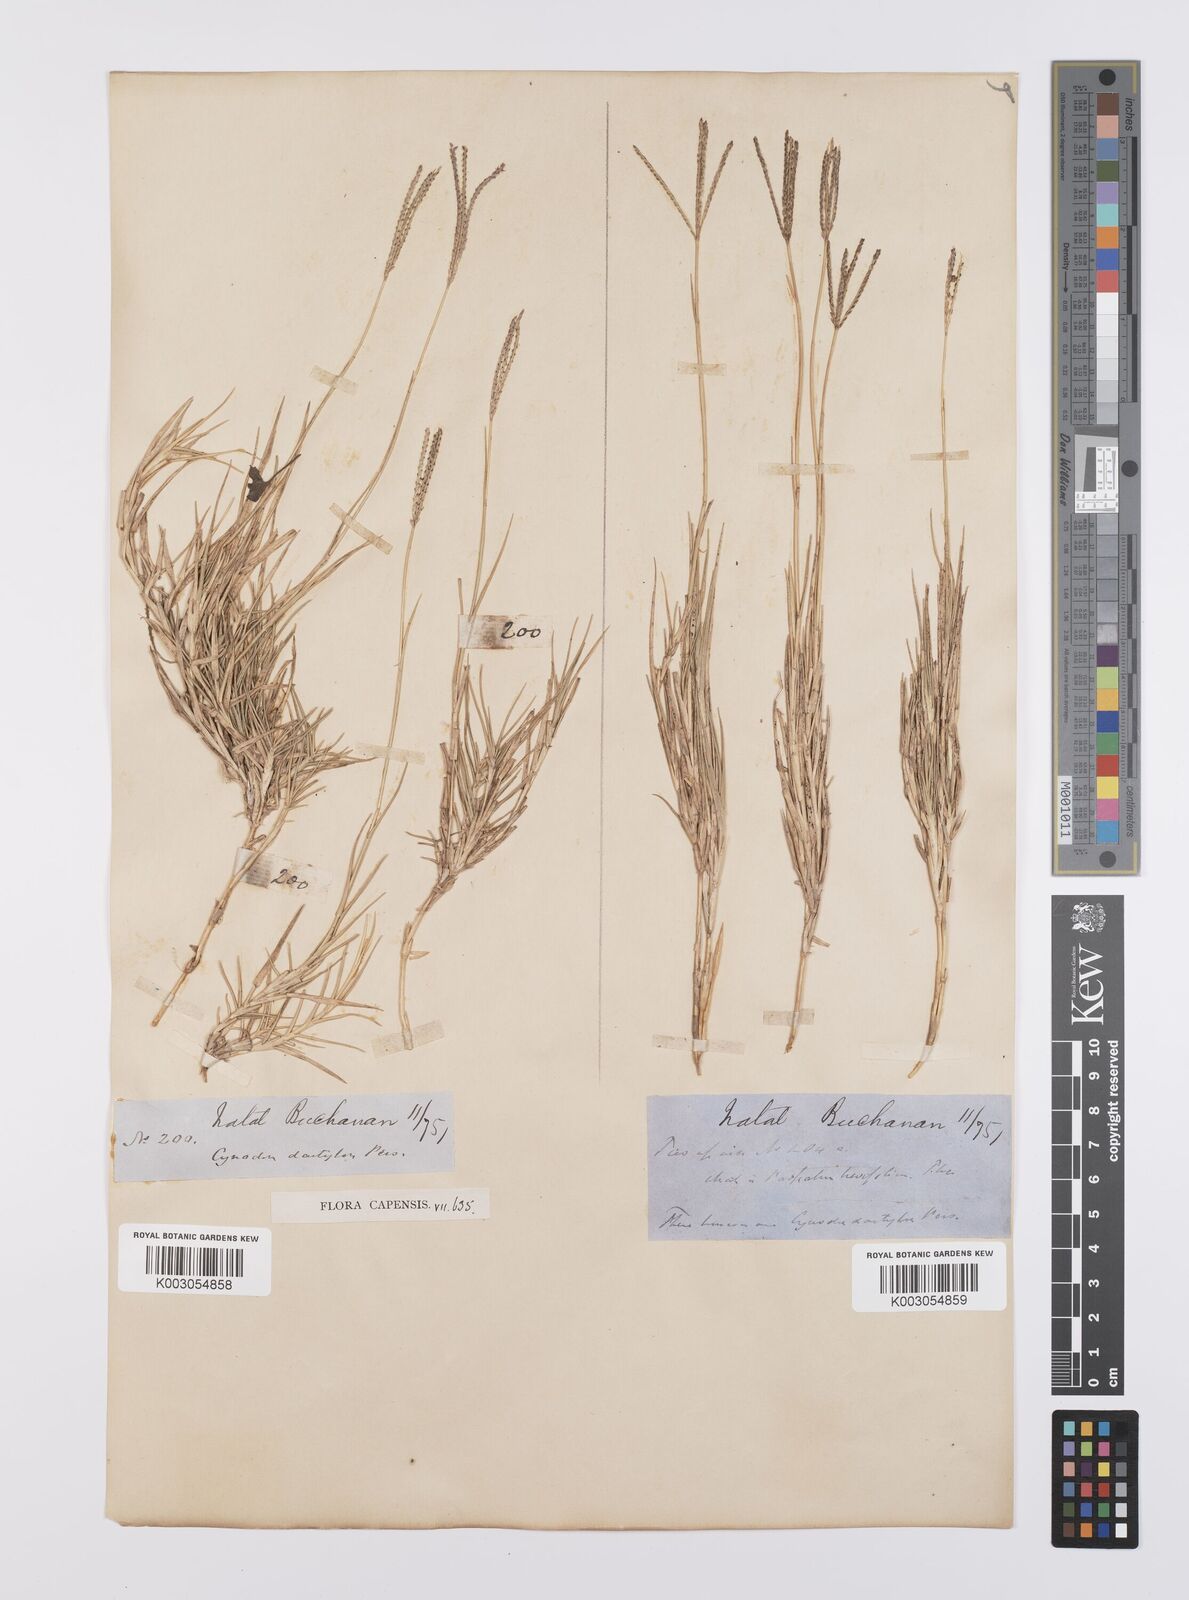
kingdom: Plantae
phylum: Tracheophyta
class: Liliopsida
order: Poales
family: Poaceae
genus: Cynodon
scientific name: Cynodon dactylon
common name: Bermuda grass
